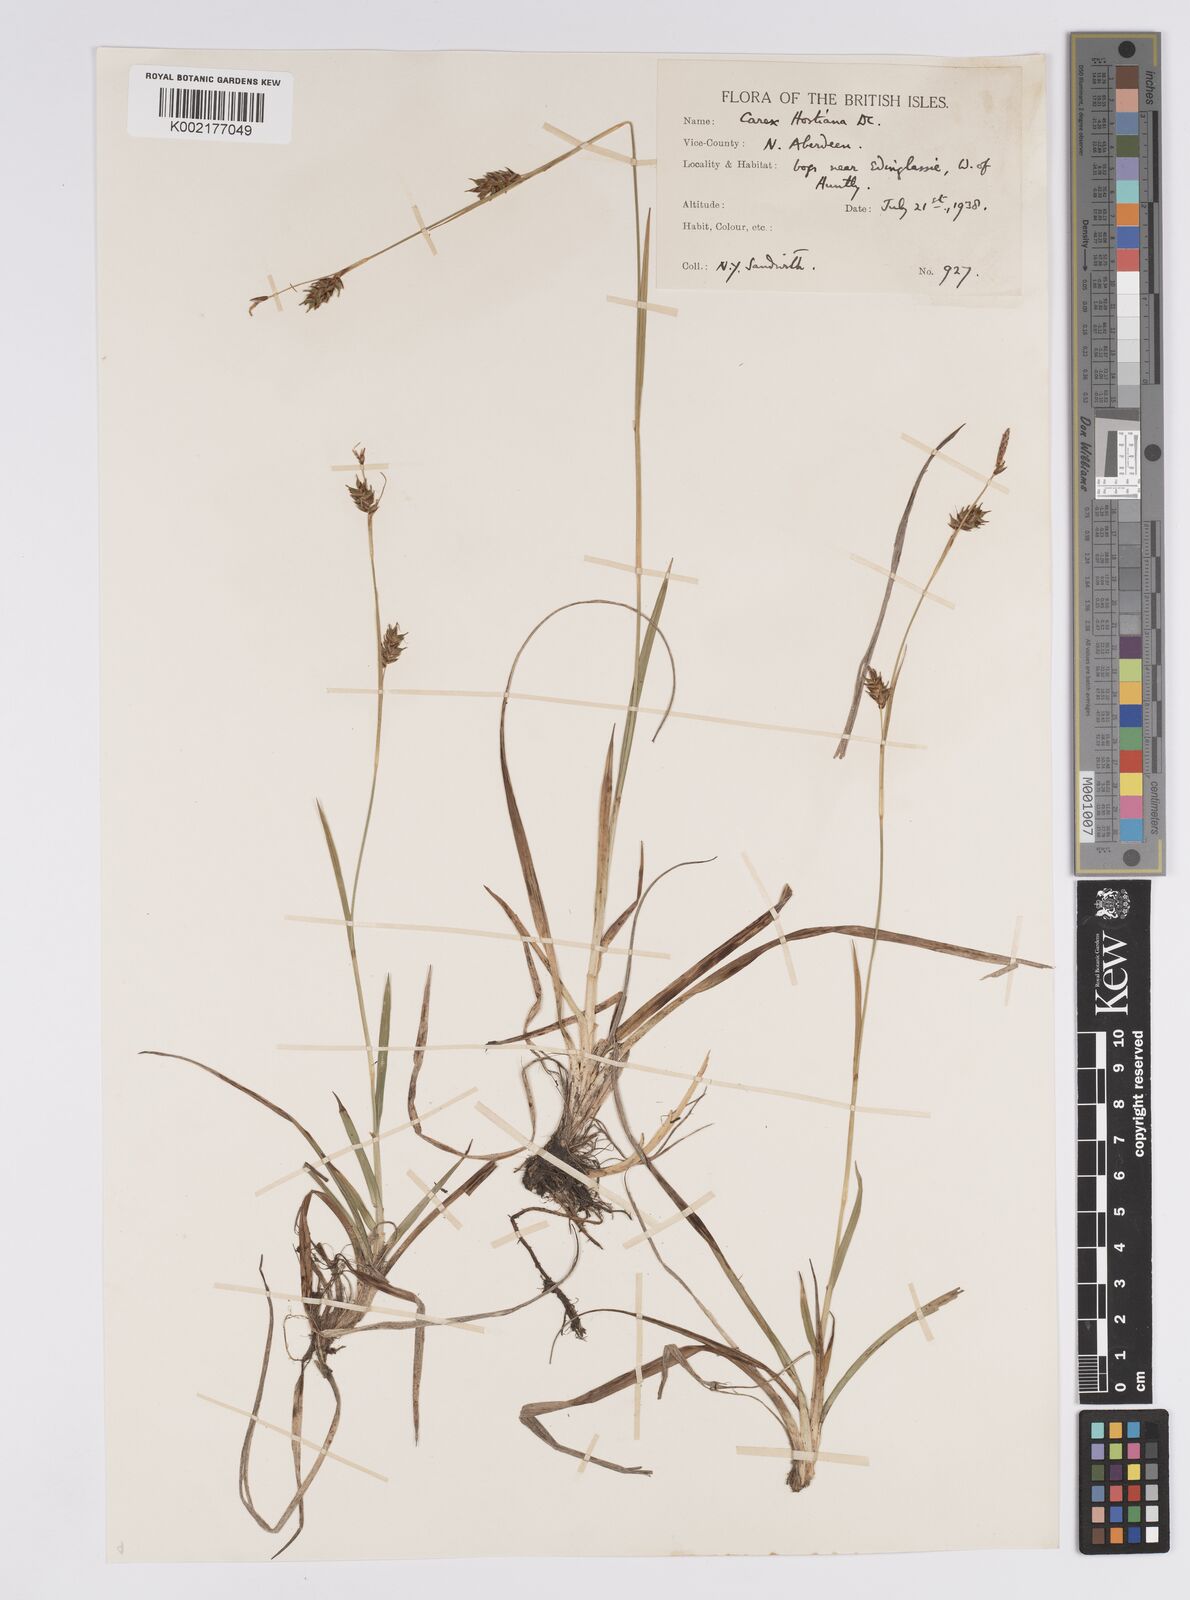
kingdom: Plantae
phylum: Tracheophyta
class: Liliopsida
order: Poales
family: Cyperaceae
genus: Carex
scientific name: Carex hostiana
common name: Tawny sedge
